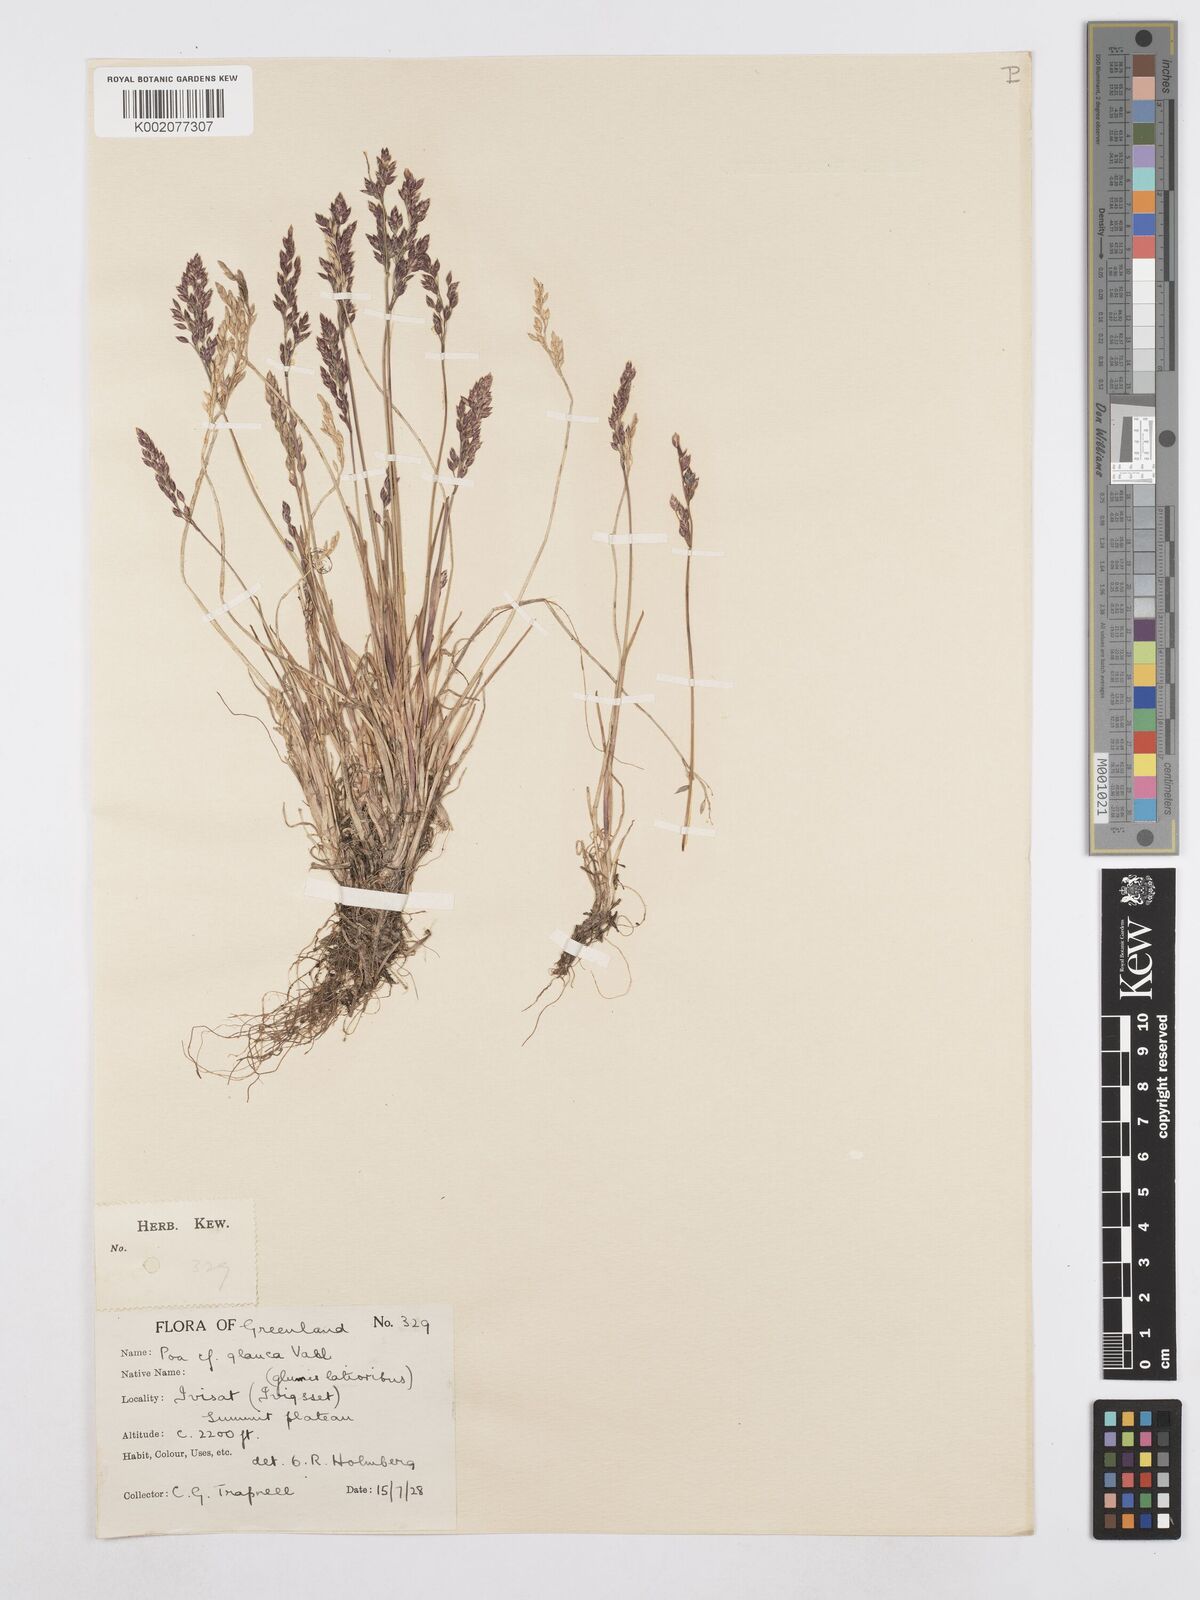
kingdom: Plantae
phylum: Tracheophyta
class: Liliopsida
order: Poales
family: Poaceae
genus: Poa
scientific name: Poa glauca
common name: Glaucous bluegrass
